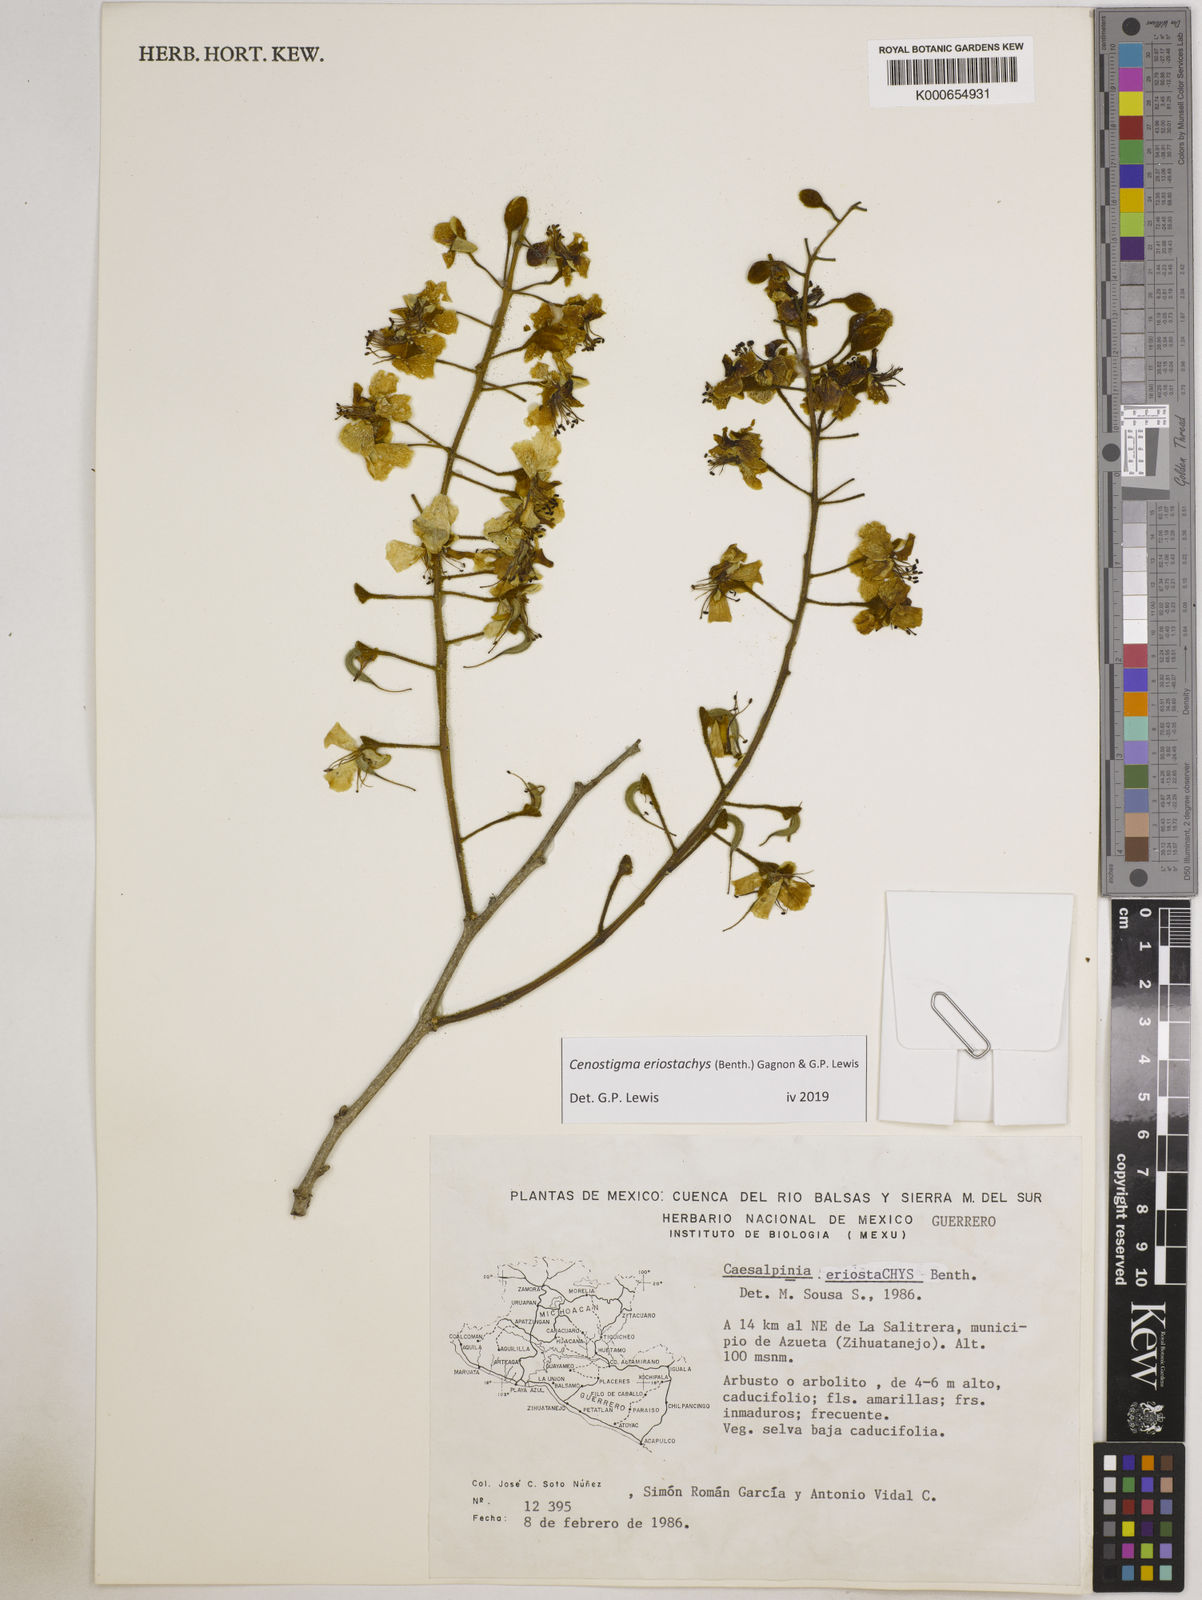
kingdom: Plantae
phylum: Tracheophyta
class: Magnoliopsida
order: Fabales
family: Fabaceae
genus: Cenostigma
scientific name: Cenostigma eriostachys
